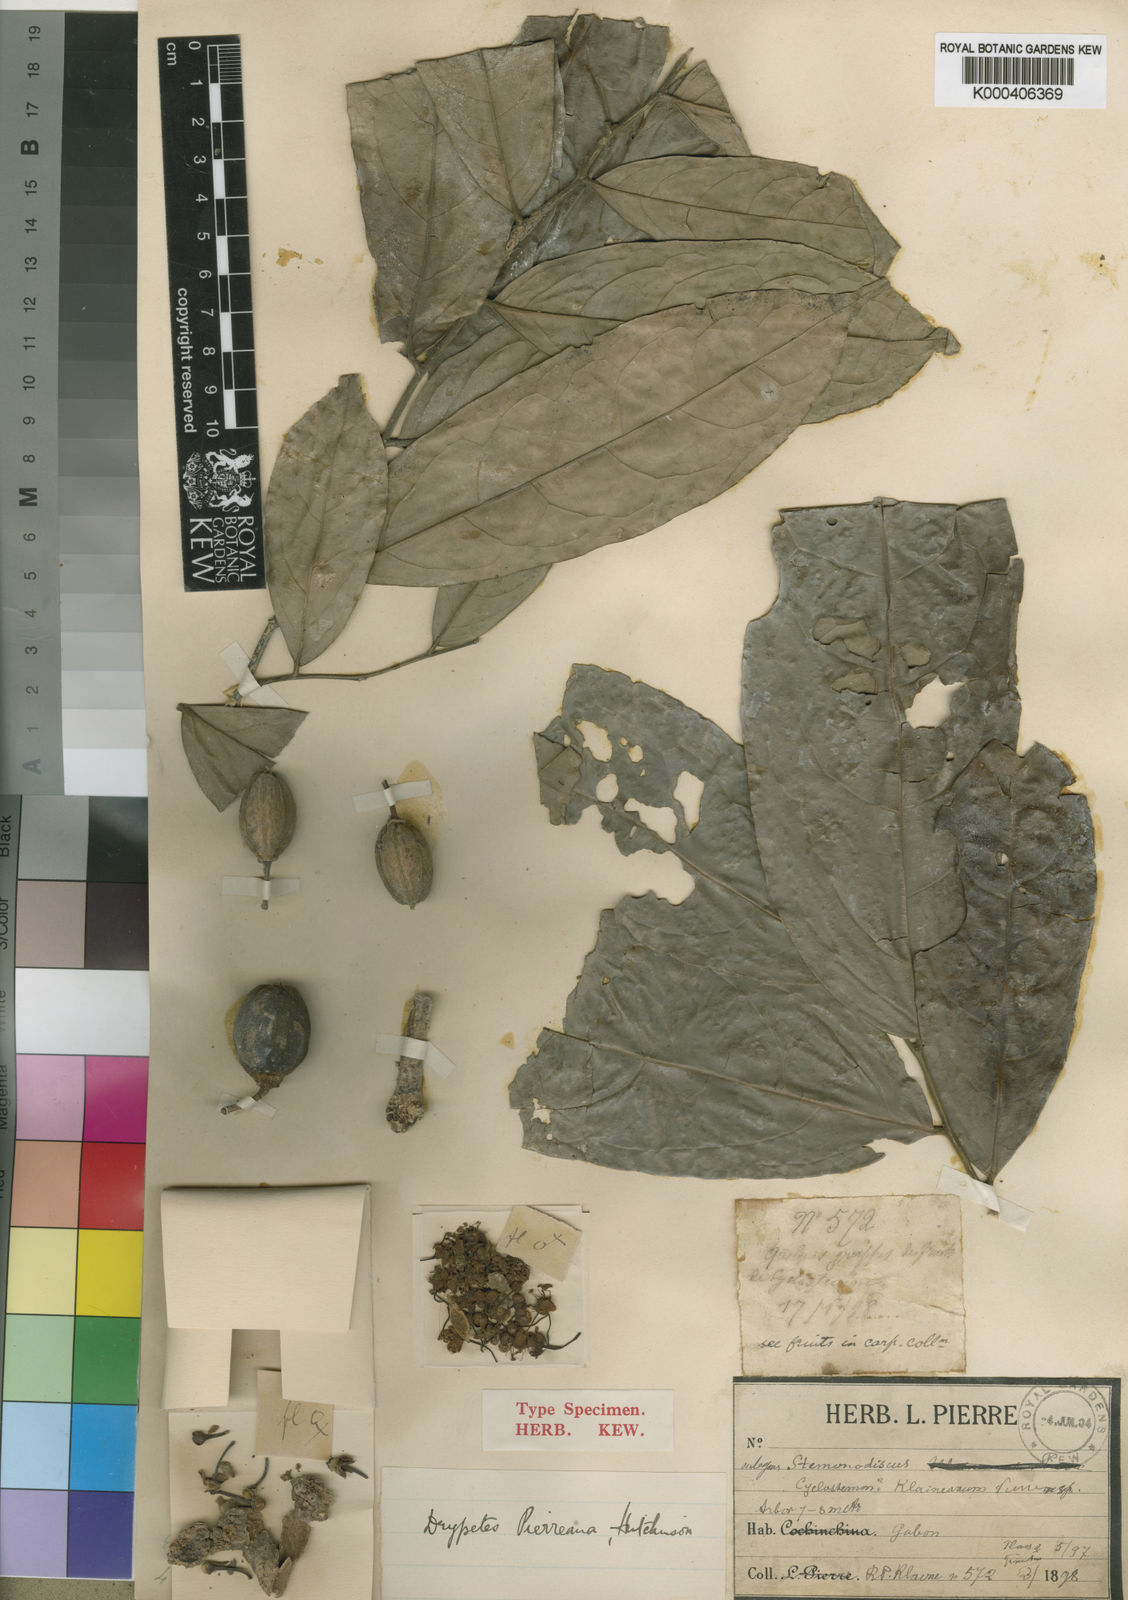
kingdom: Plantae
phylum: Tracheophyta
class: Magnoliopsida
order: Malpighiales
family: Putranjivaceae
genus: Drypetes
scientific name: Drypetes pierreana
